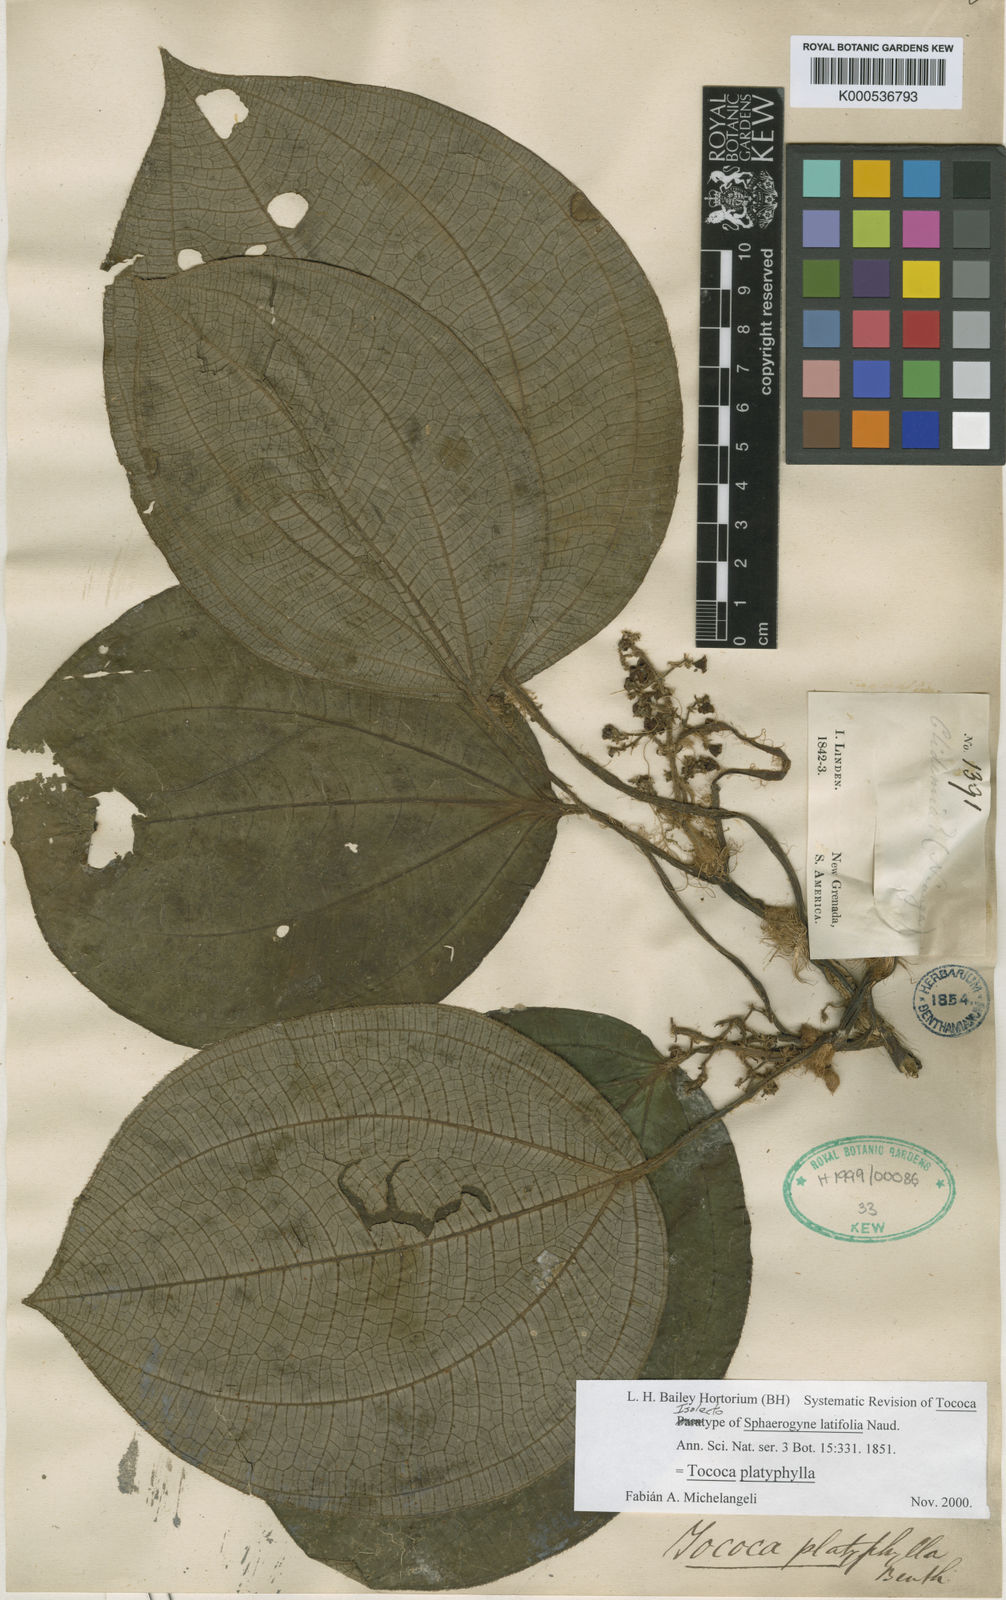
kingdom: Plantae
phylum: Tracheophyta
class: Magnoliopsida
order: Myrtales
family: Melastomataceae
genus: Miconia
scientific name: Miconia platyphylla
